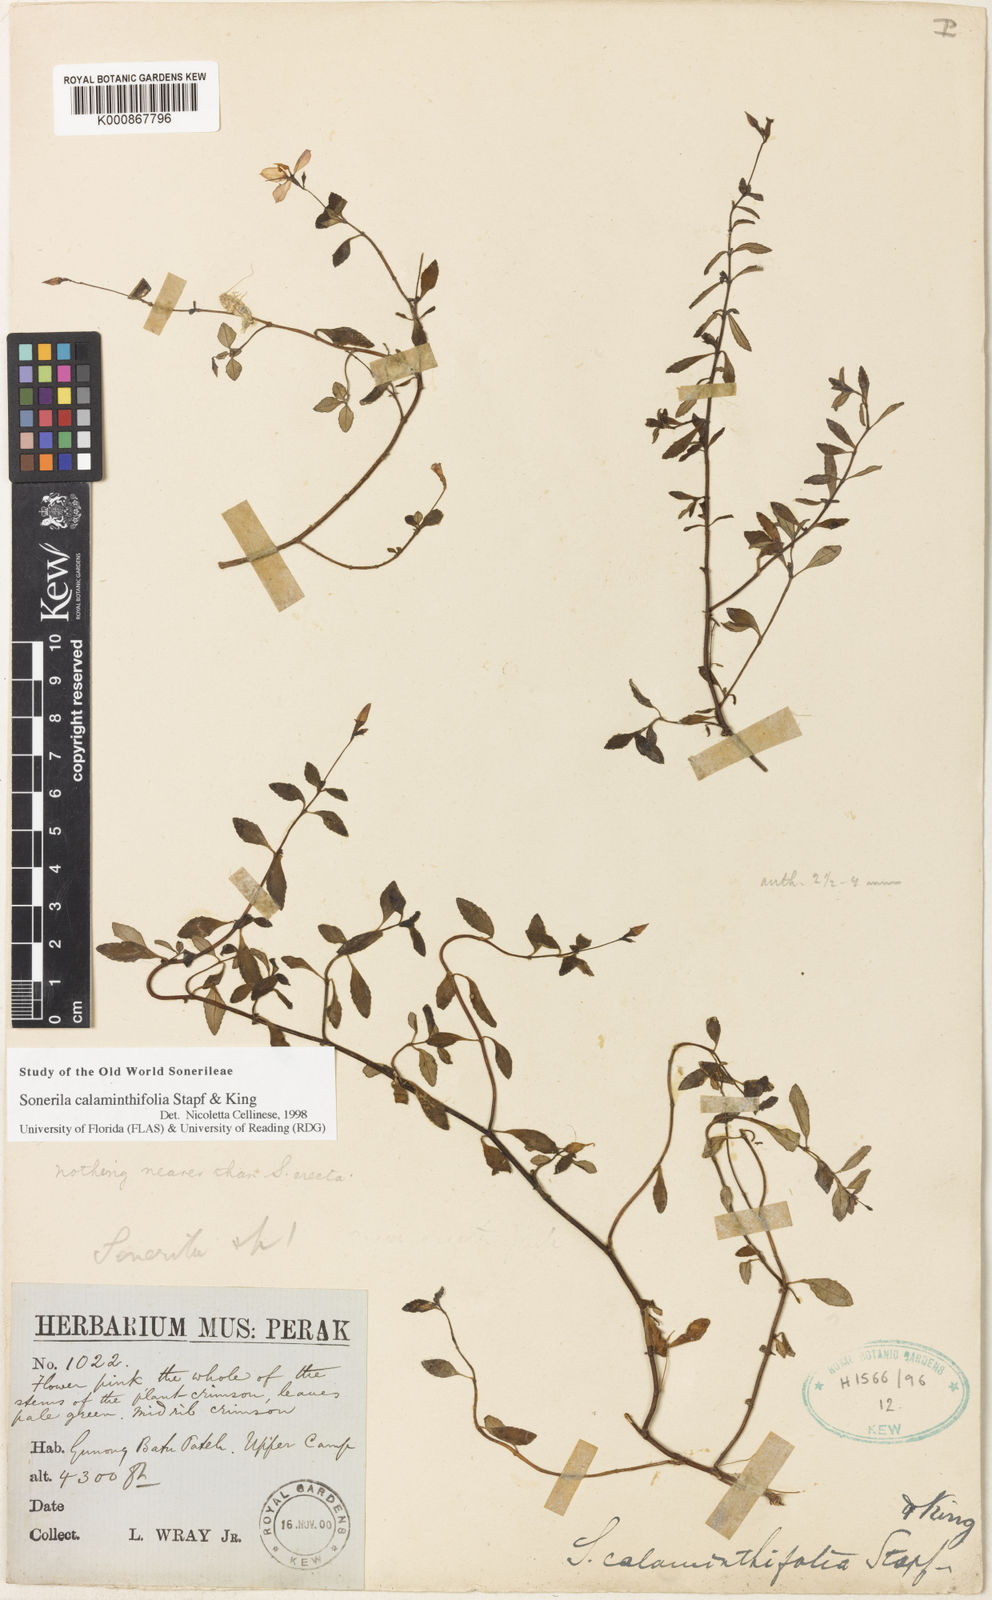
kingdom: Plantae
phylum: Tracheophyta
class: Magnoliopsida
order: Myrtales
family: Melastomataceae
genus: Sonerila
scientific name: Sonerila calaminthifolia
